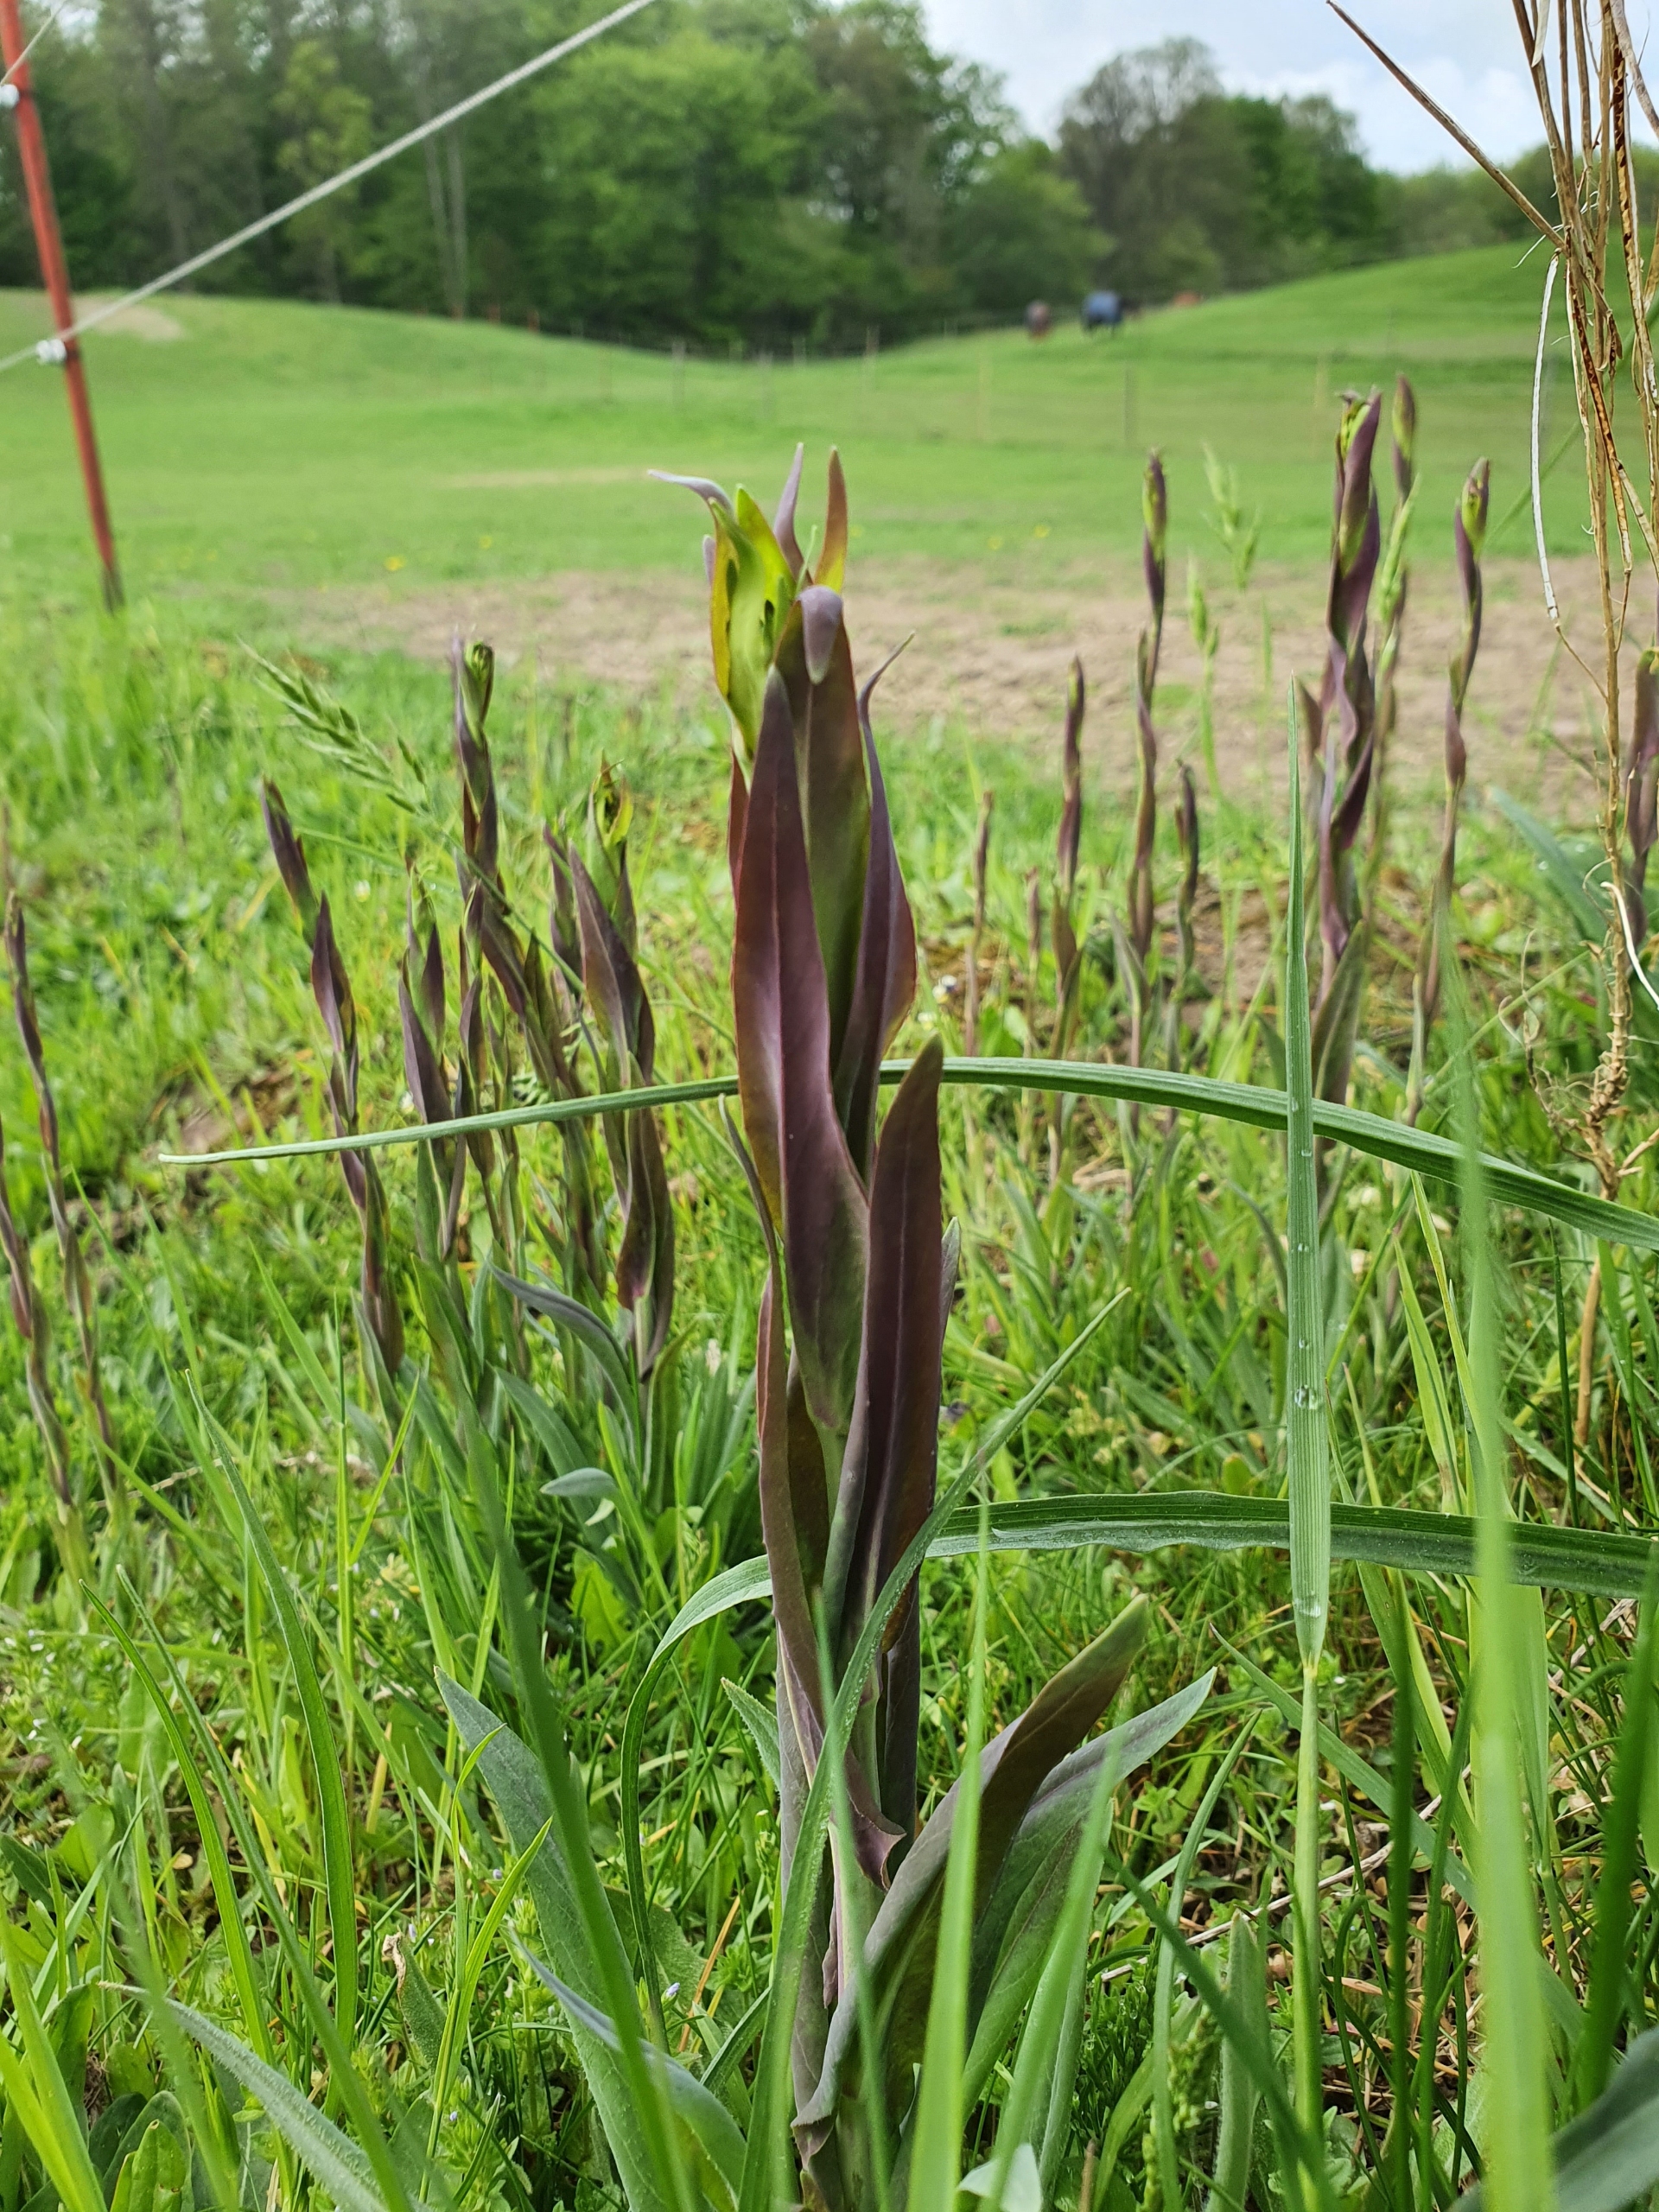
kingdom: Plantae
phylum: Tracheophyta
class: Magnoliopsida
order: Brassicales
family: Brassicaceae
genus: Turritis
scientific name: Turritis glabra
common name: Tårnurt
